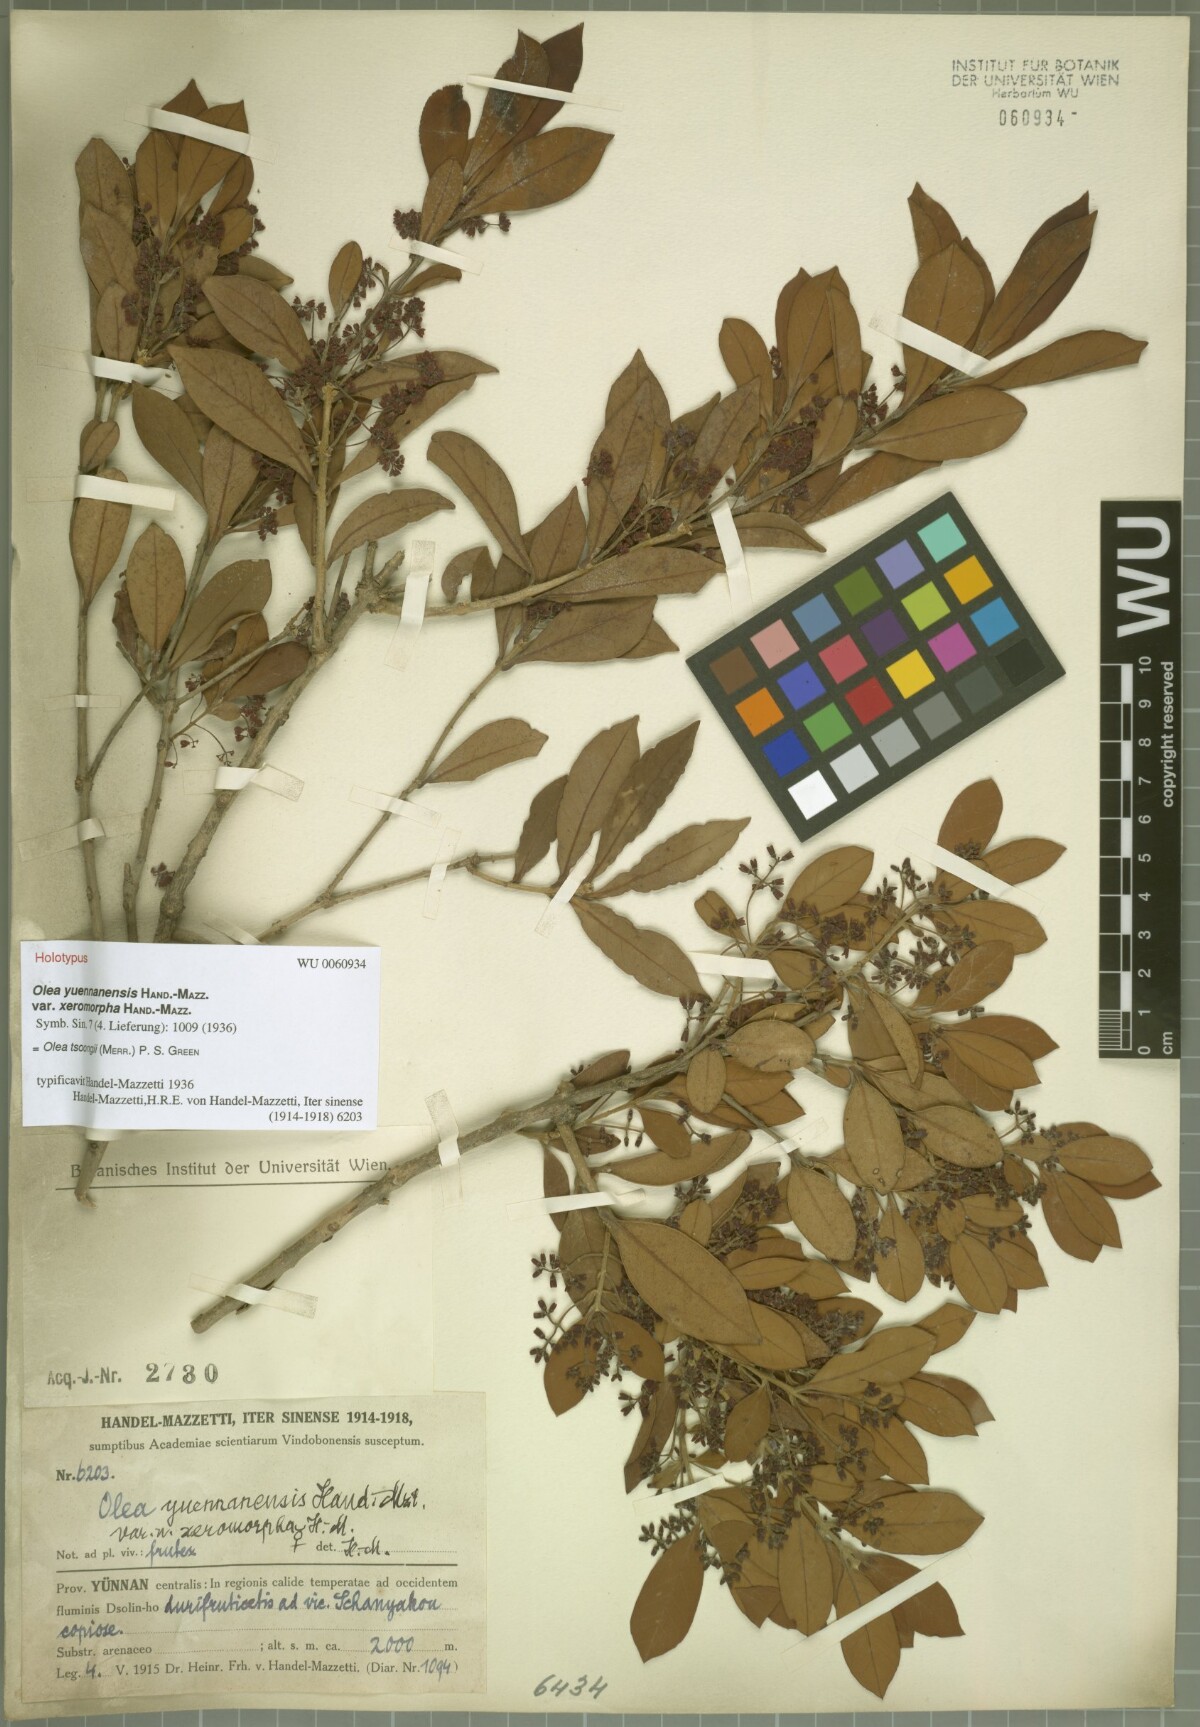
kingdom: Plantae
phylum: Tracheophyta
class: Magnoliopsida
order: Lamiales
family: Oleaceae
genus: Tetrapilus
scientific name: Tetrapilus tsoongii
